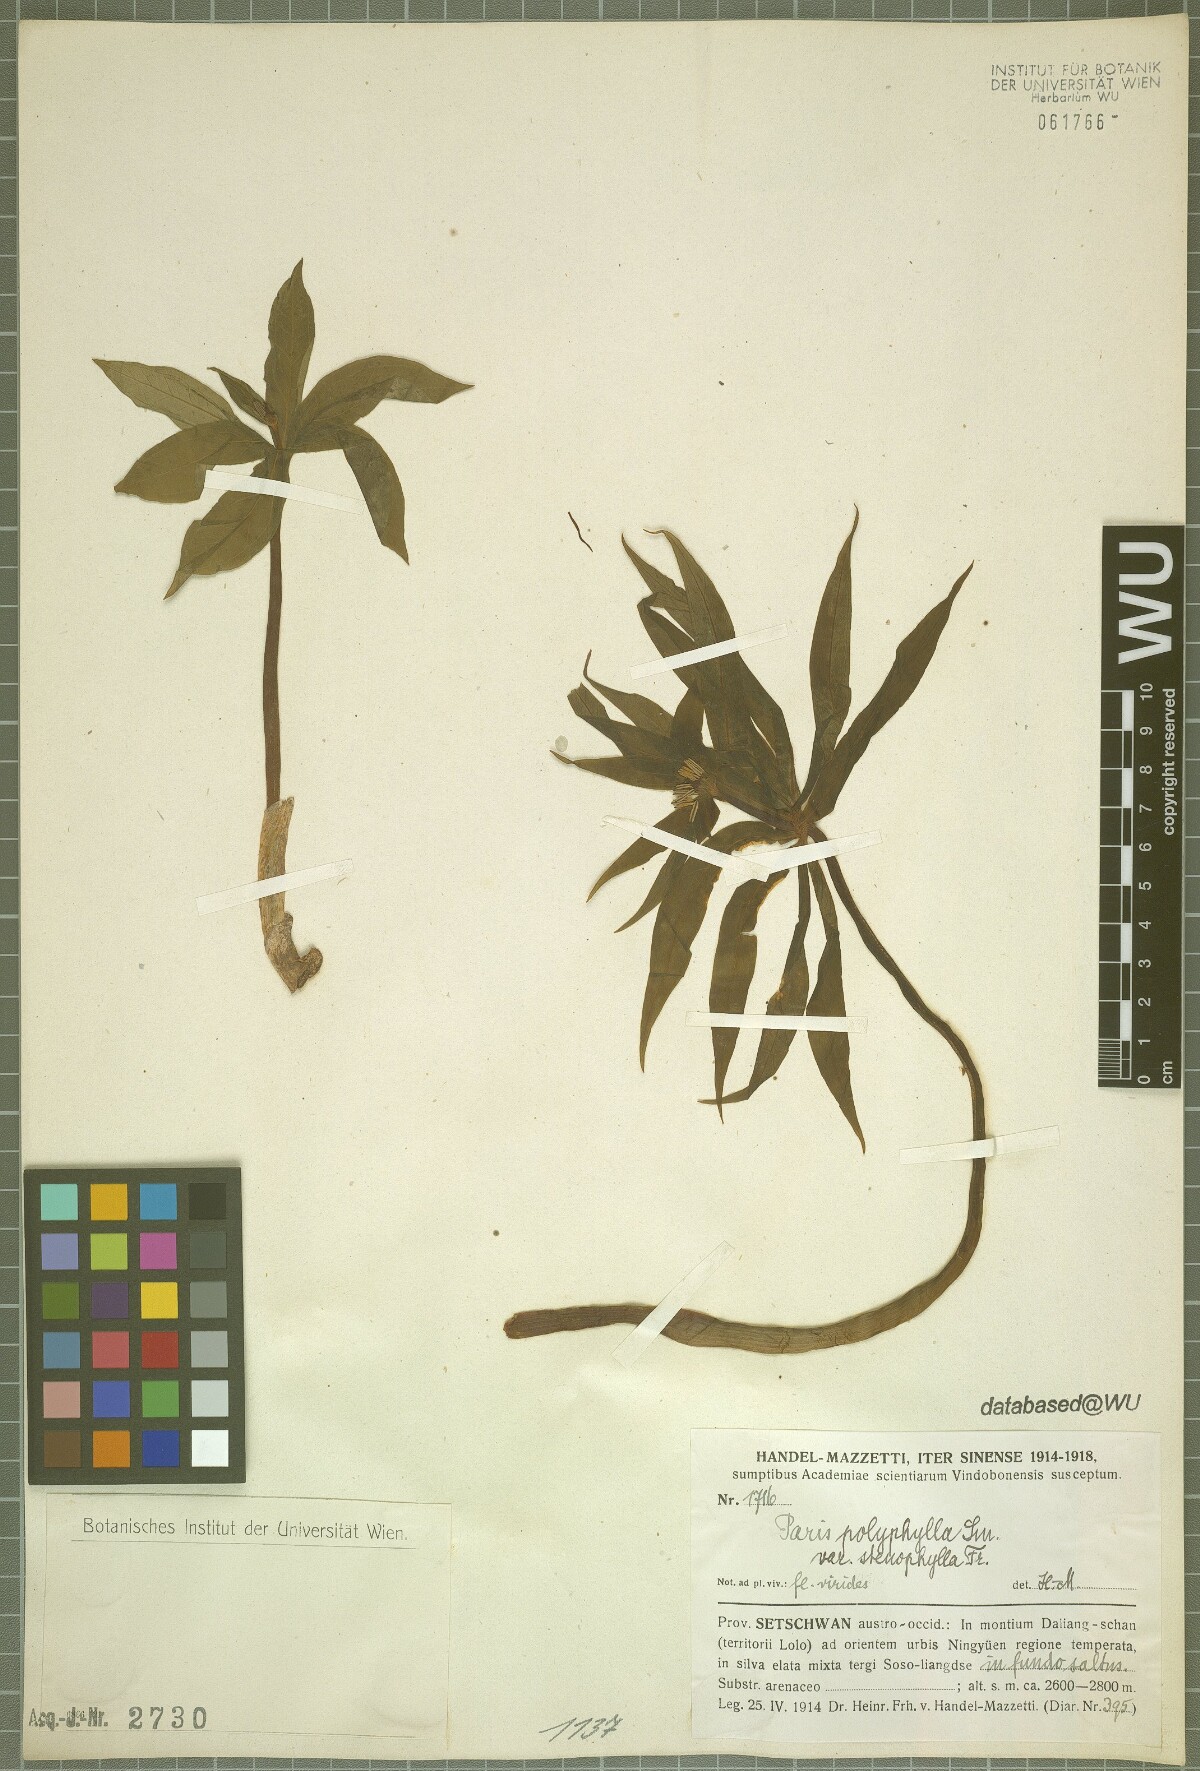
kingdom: Plantae
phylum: Tracheophyta
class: Liliopsida
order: Liliales
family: Melanthiaceae
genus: Paris
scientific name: Paris lancifolia
